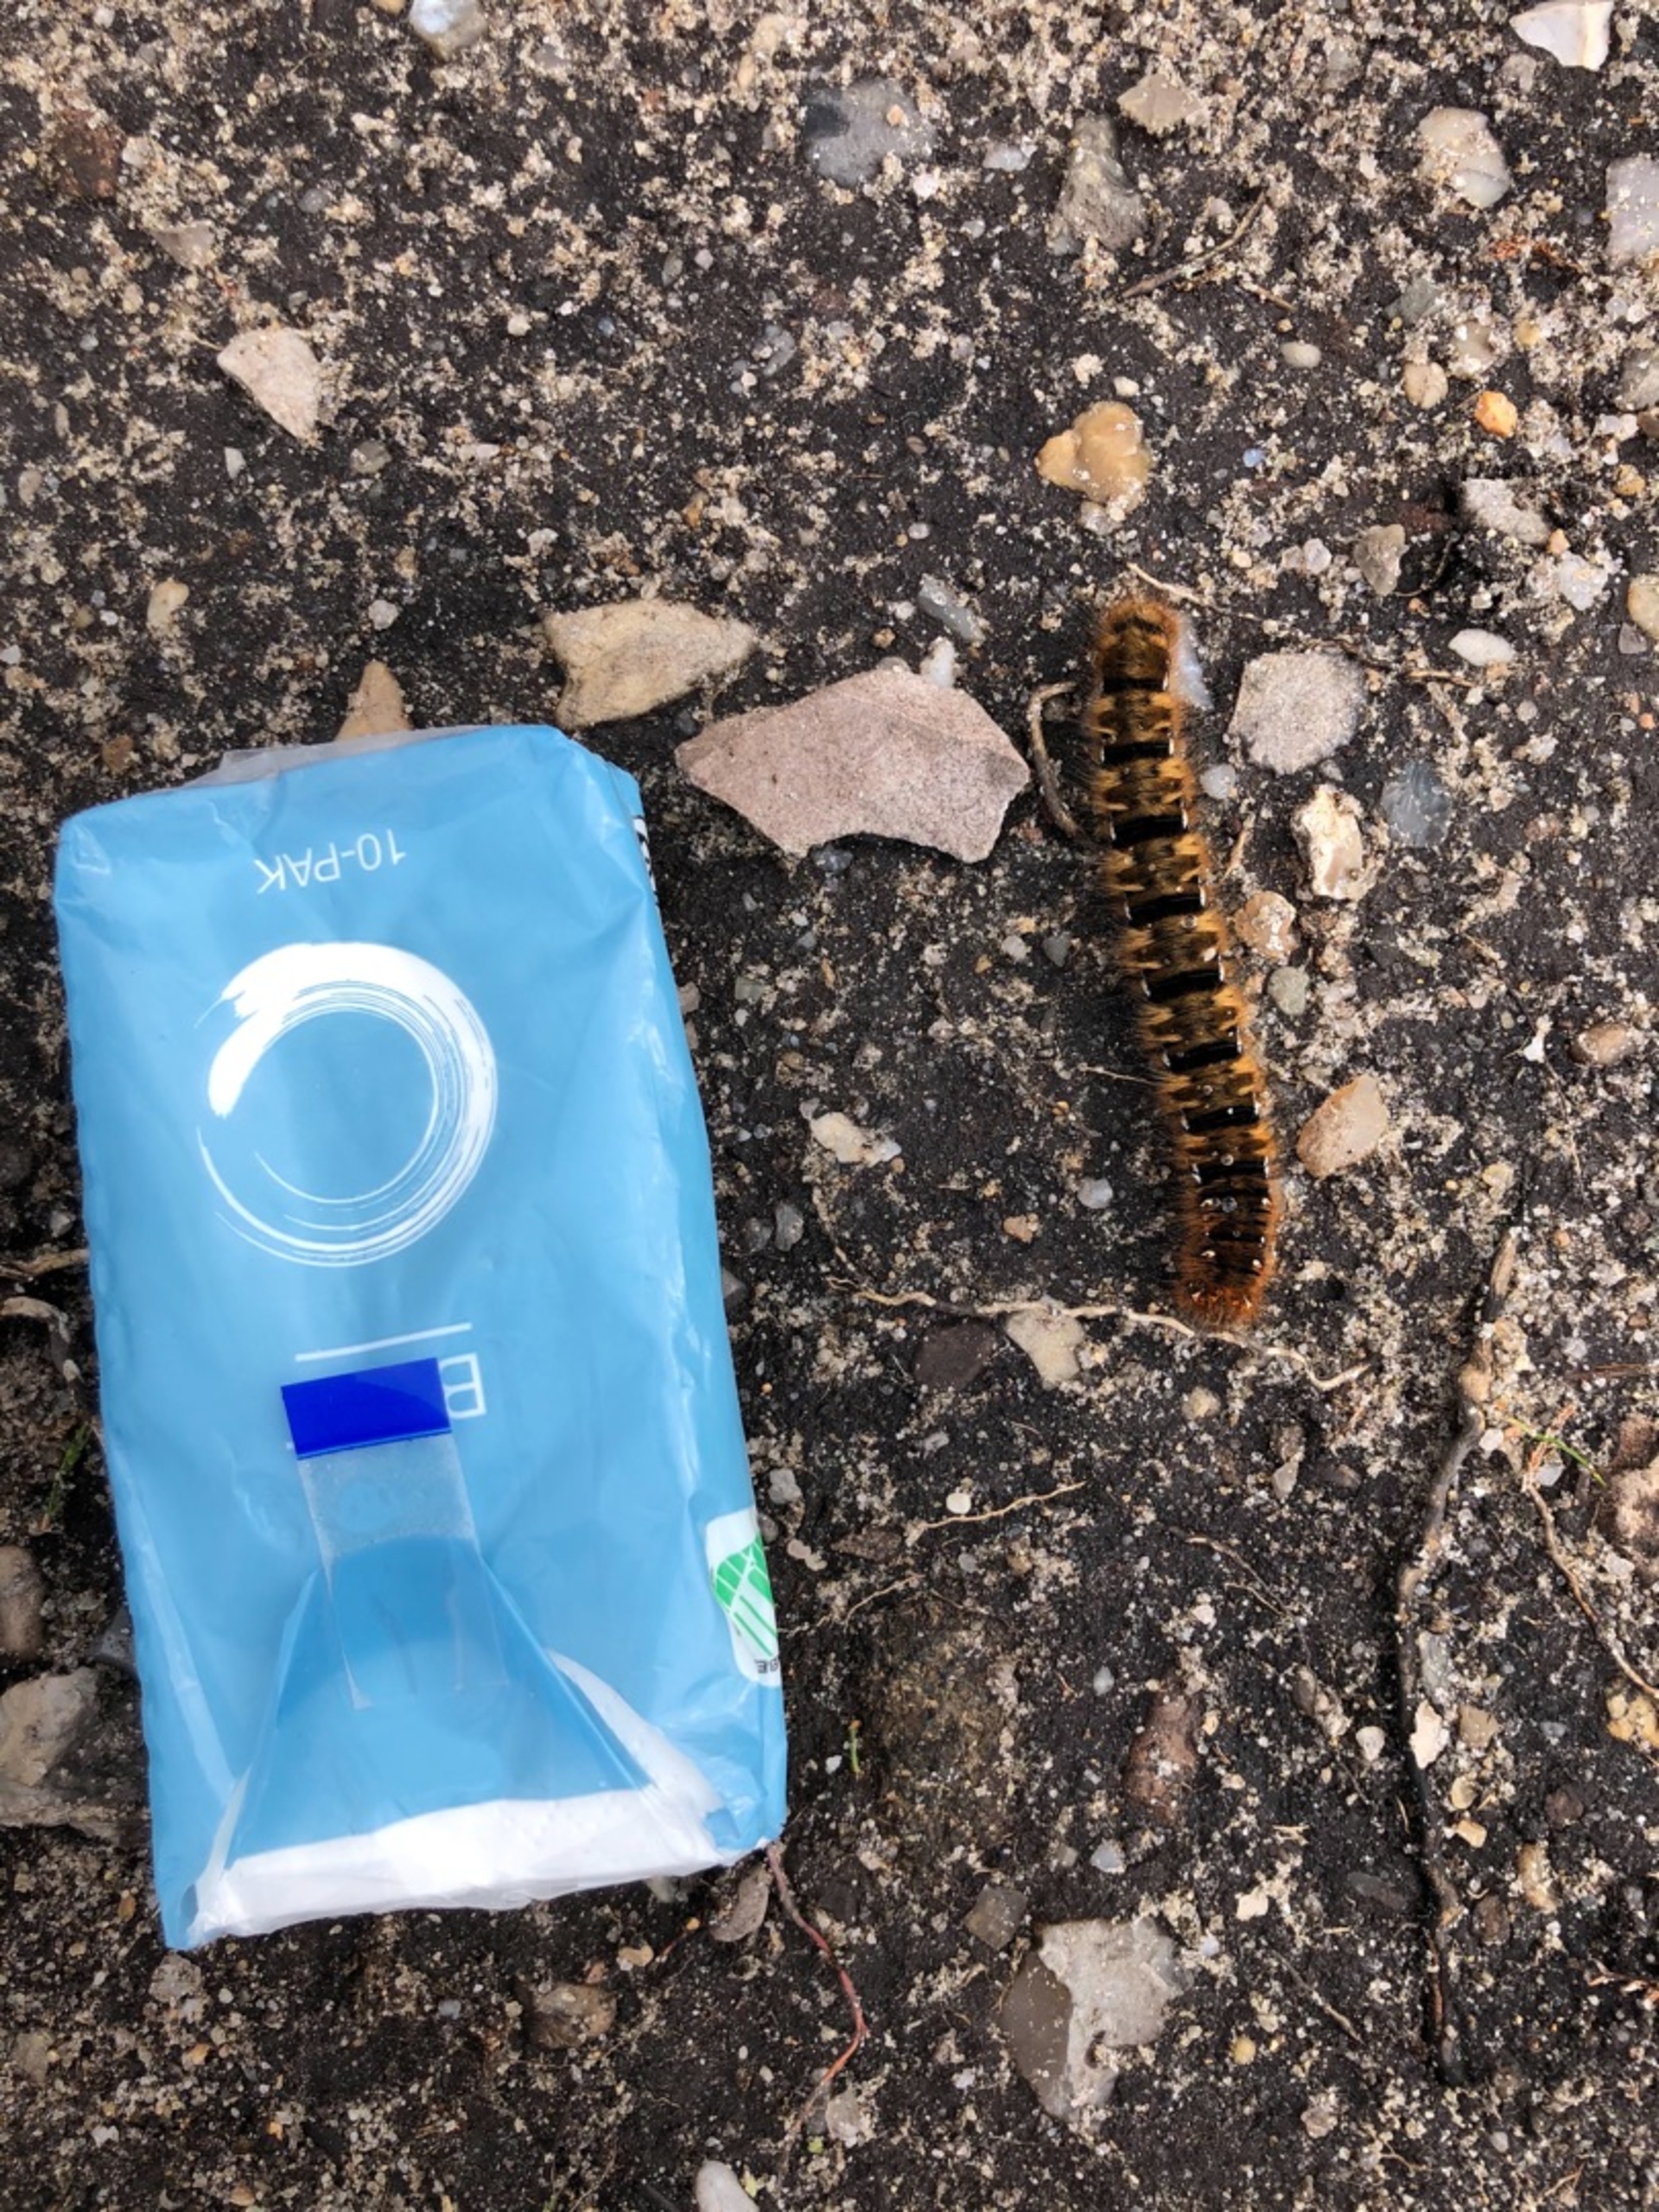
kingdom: Animalia
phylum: Arthropoda
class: Insecta
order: Lepidoptera
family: Lasiocampidae
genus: Lasiocampa
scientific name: Lasiocampa quercus
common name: Egespinder
